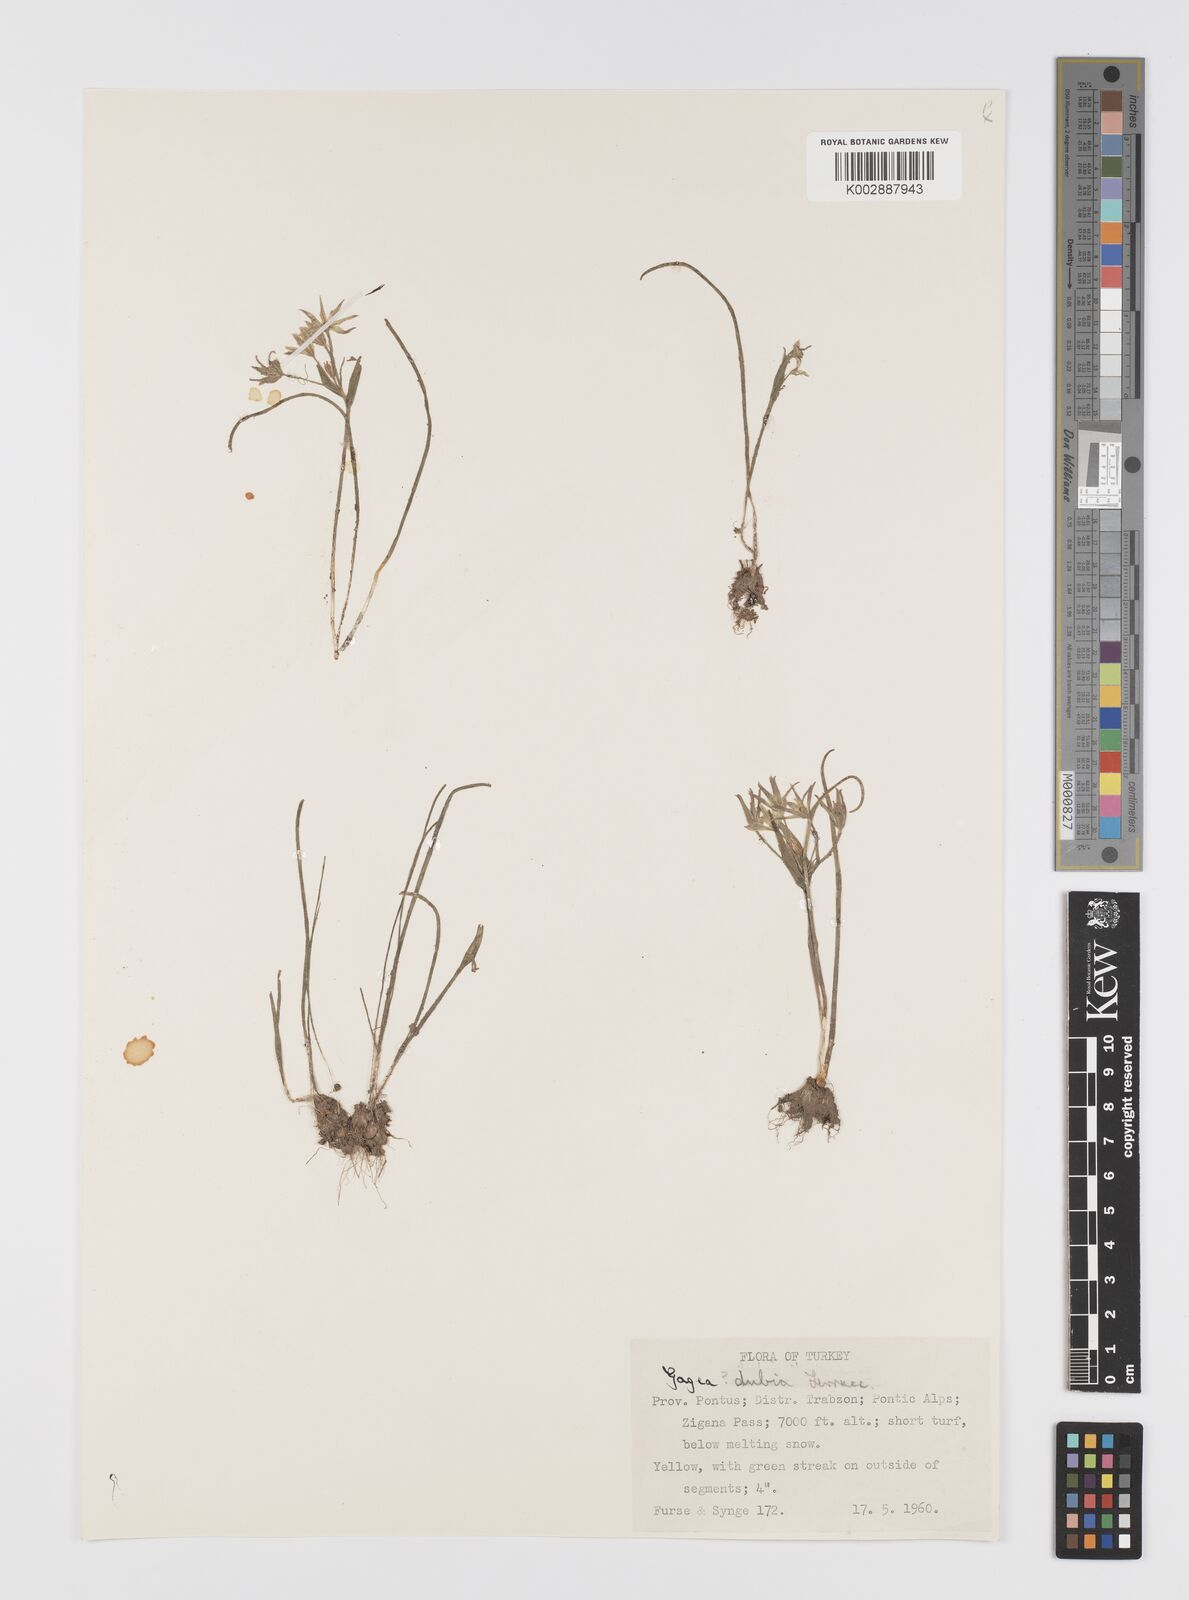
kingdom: Plantae
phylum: Tracheophyta
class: Liliopsida
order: Liliales
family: Liliaceae
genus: Gagea
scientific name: Gagea dubia
